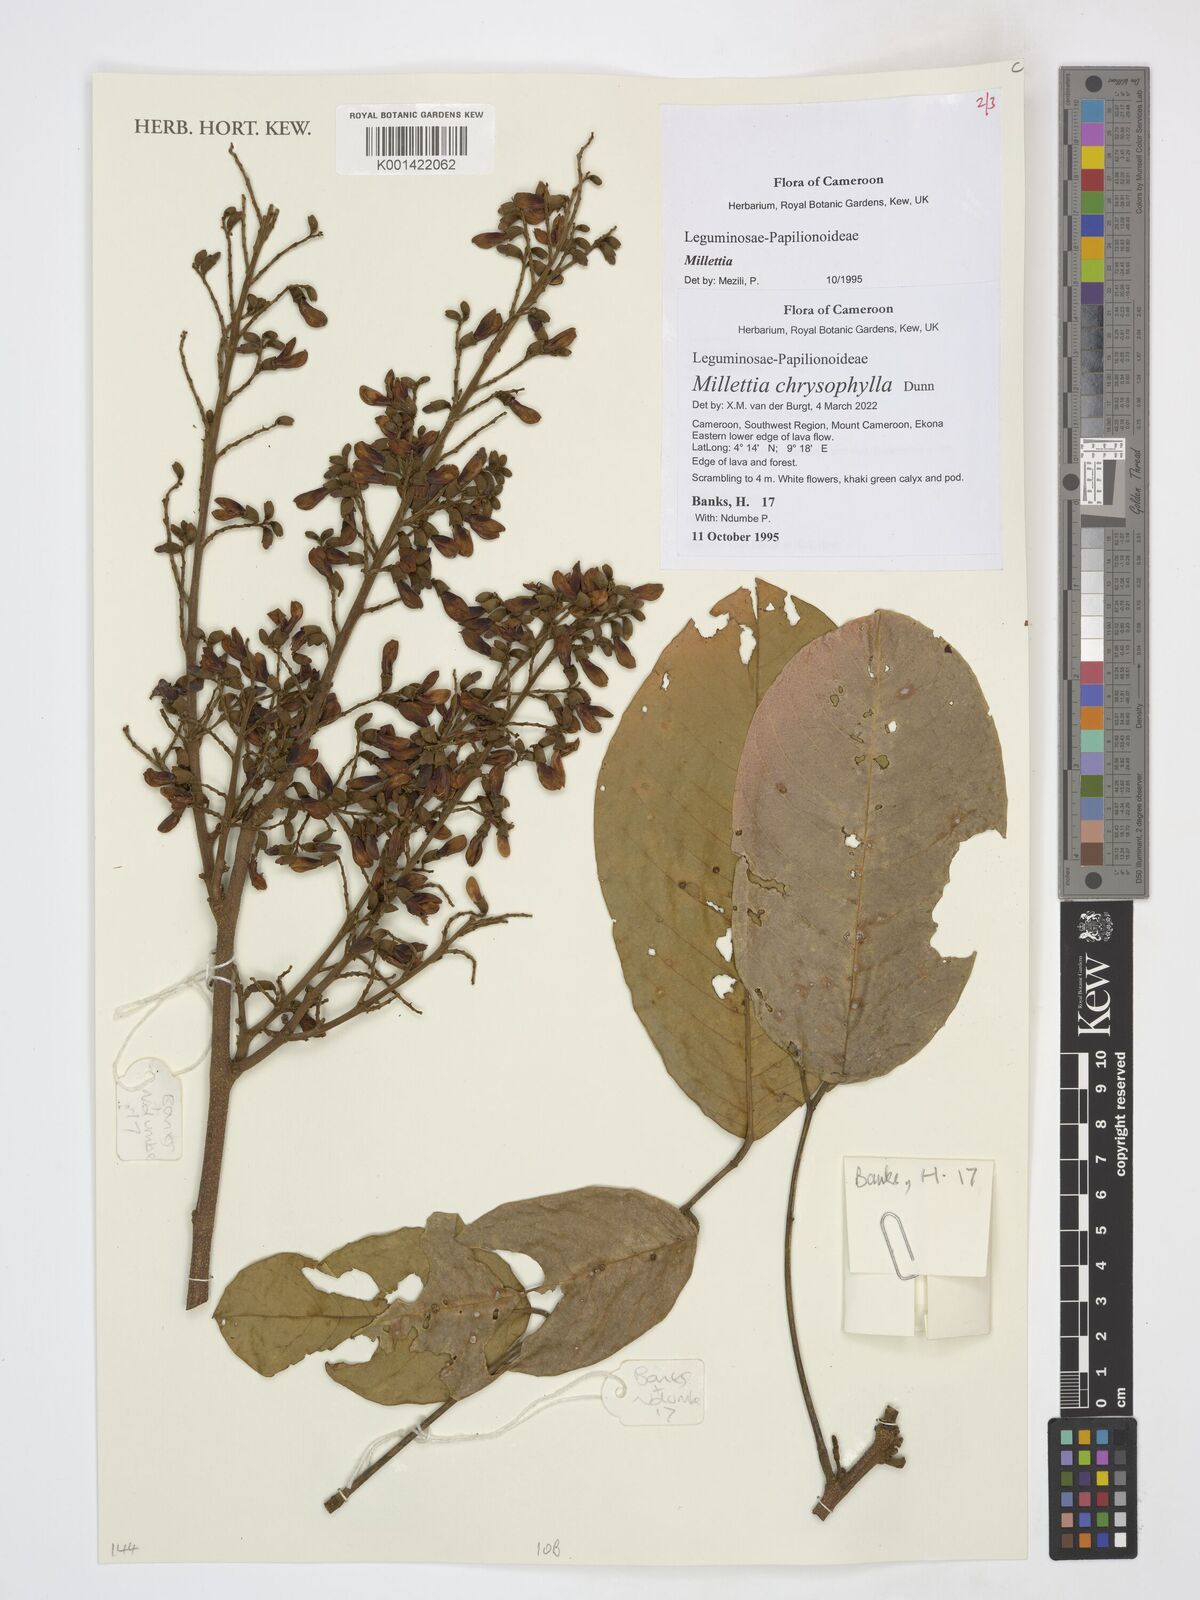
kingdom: Plantae
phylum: Tracheophyta
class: Magnoliopsida
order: Fabales
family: Fabaceae
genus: Millettia
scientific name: Millettia chrysophylla
